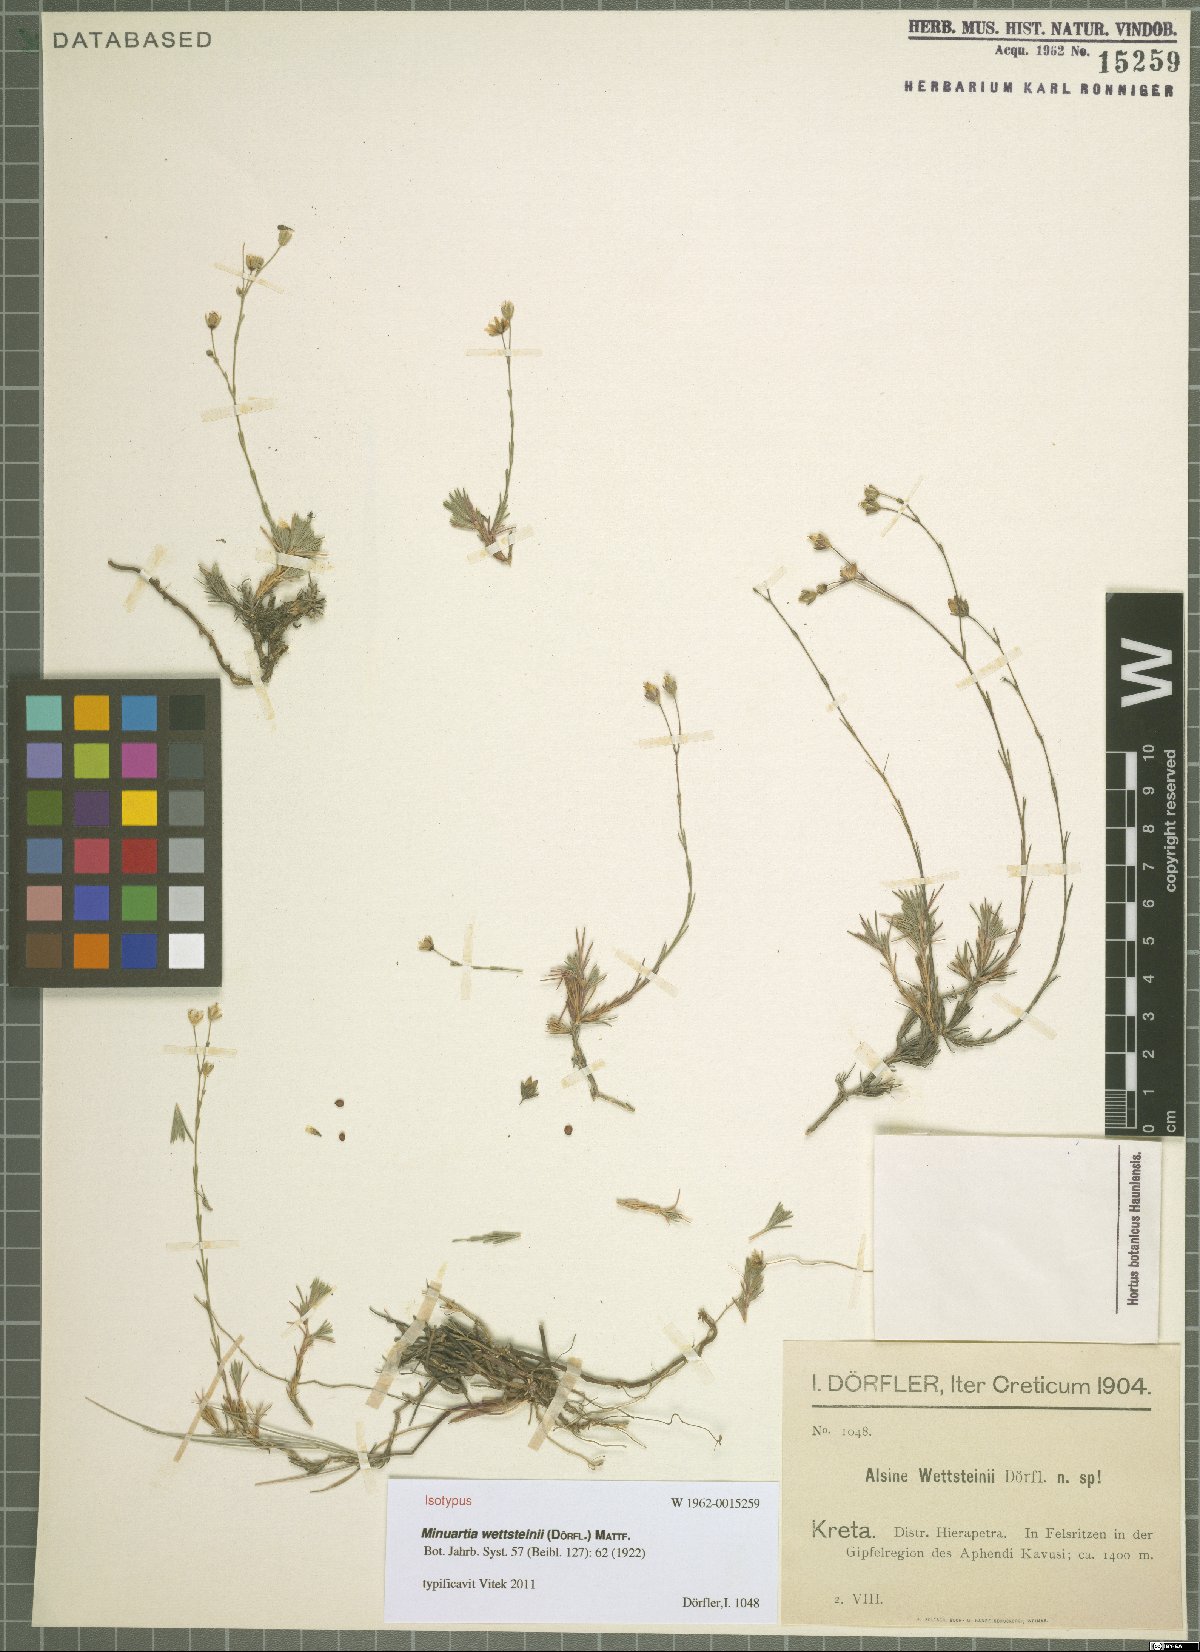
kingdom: Plantae
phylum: Tracheophyta
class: Magnoliopsida
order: Caryophyllales
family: Caryophyllaceae
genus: Cherleria
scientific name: Cherleria wettsteinii
